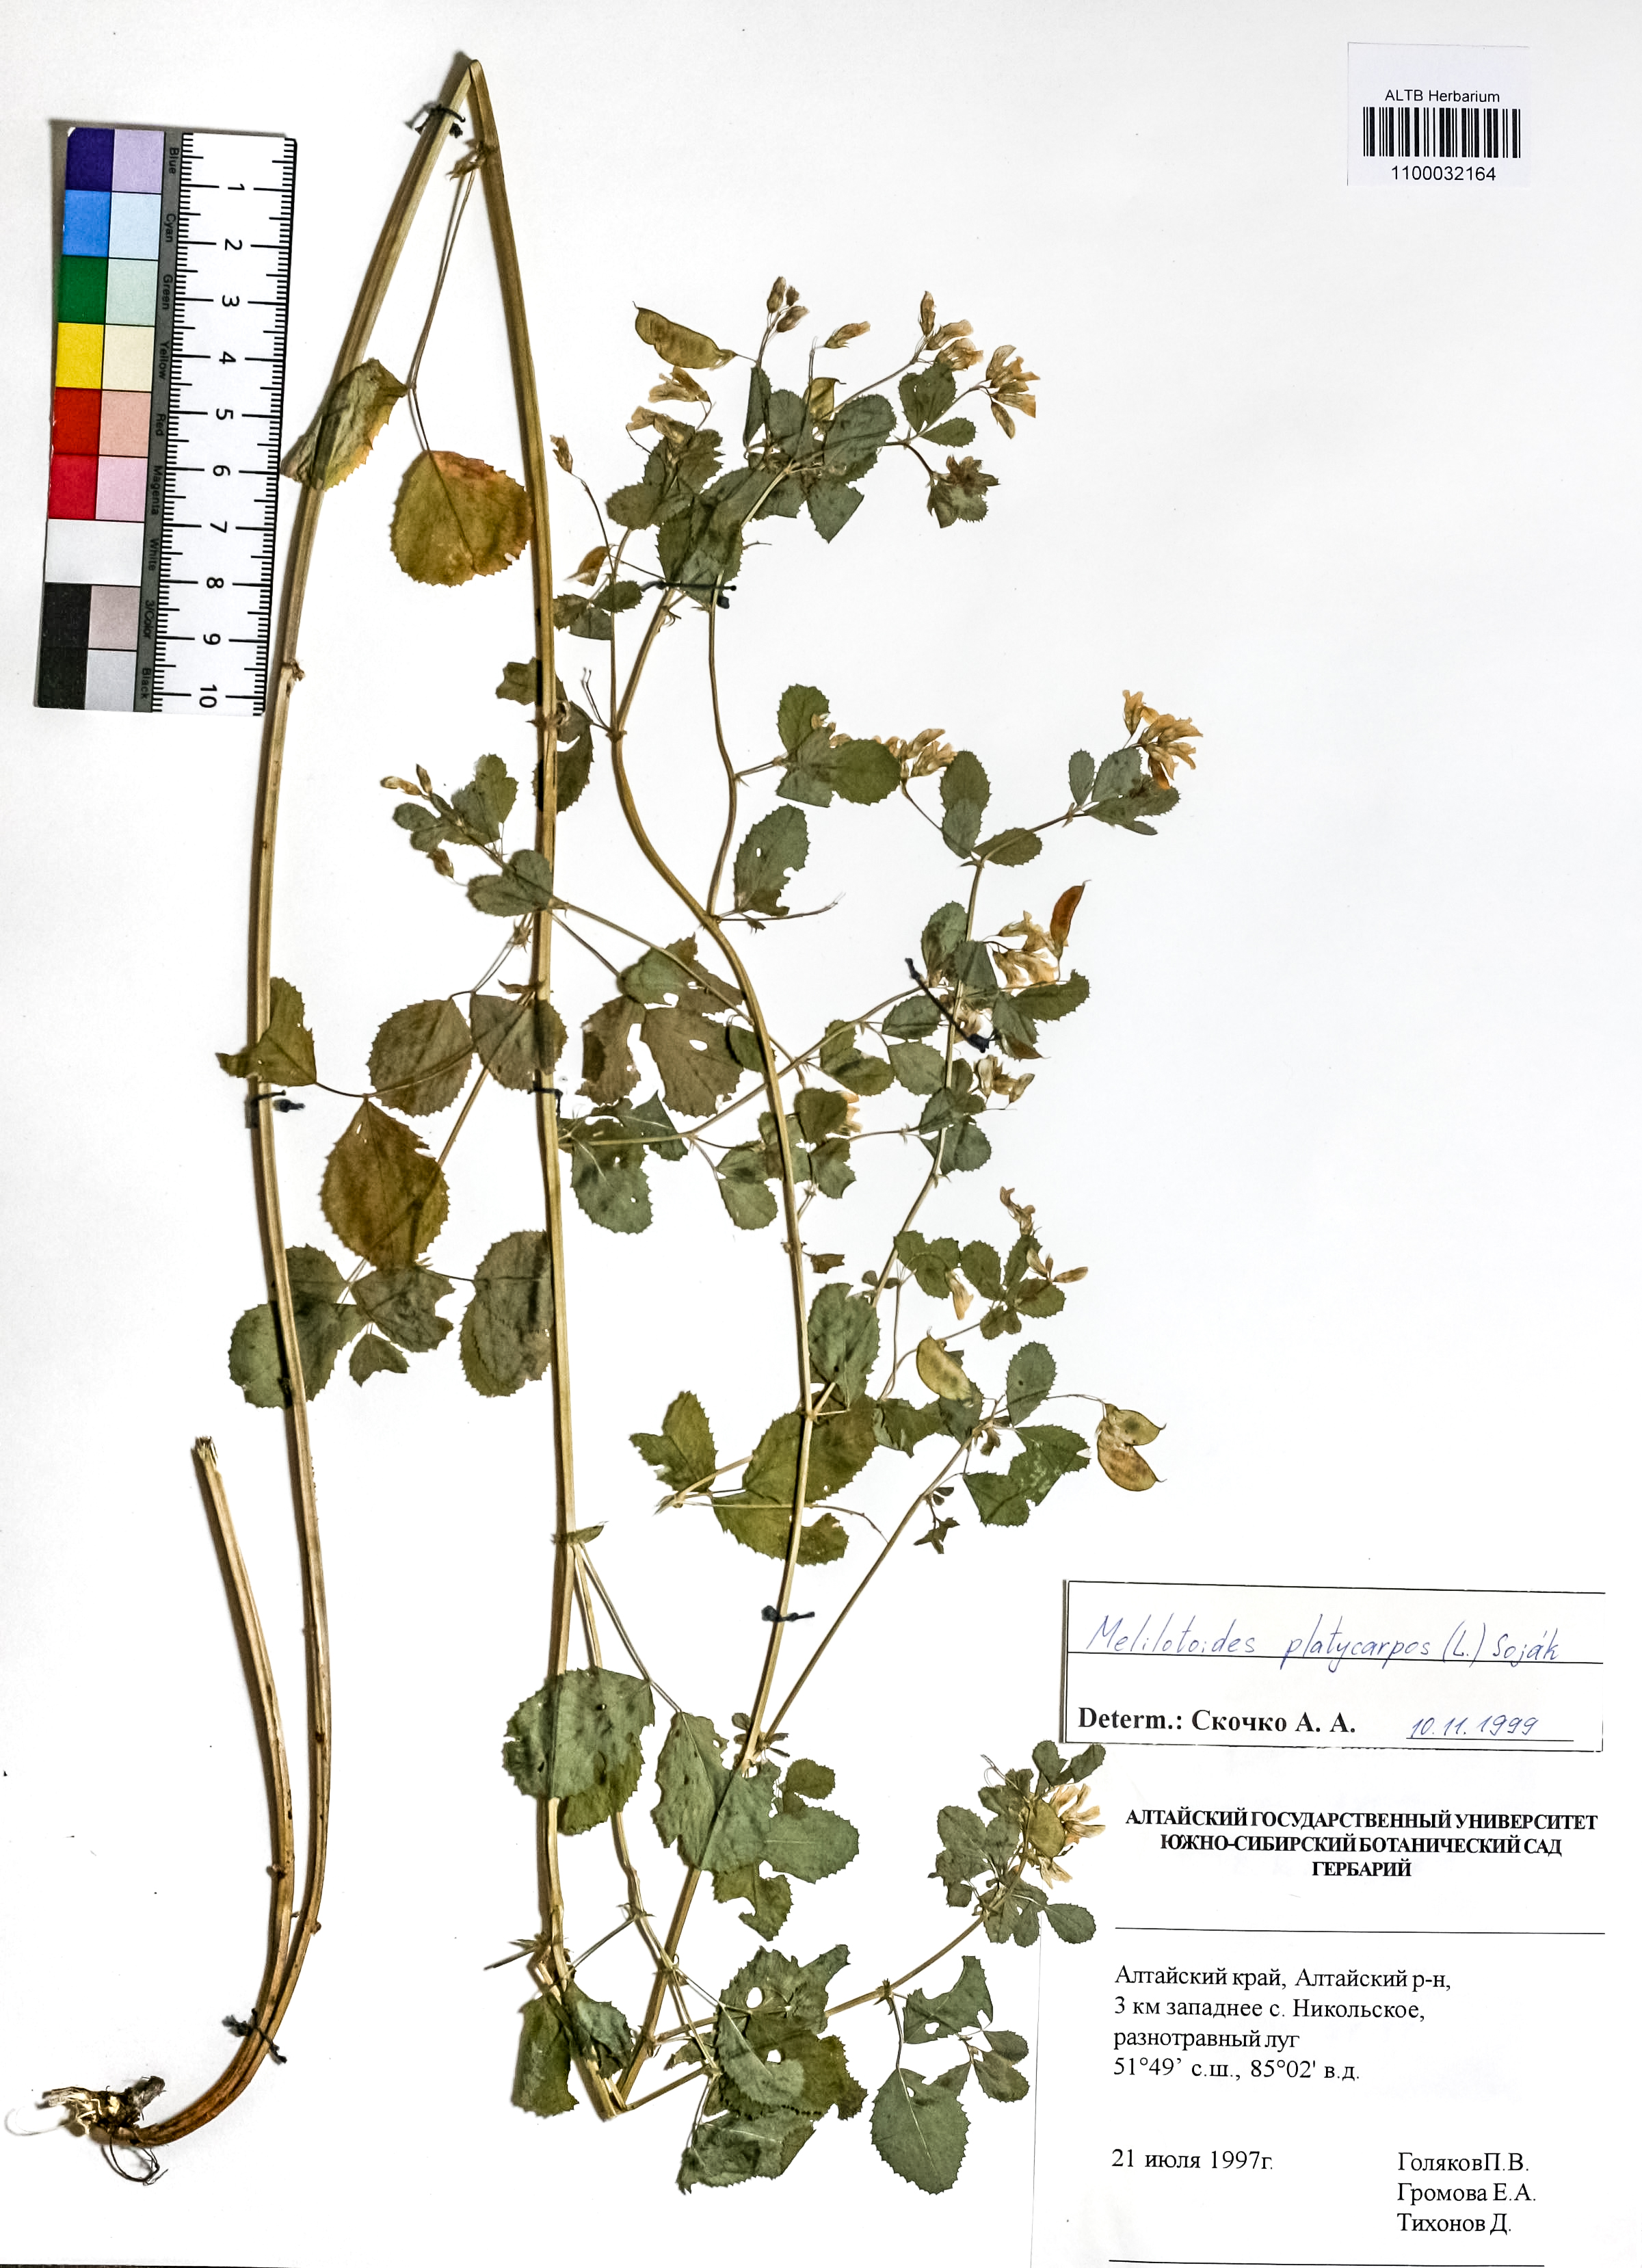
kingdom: Plantae
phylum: Tracheophyta
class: Magnoliopsida
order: Fabales
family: Fabaceae
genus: Medicago
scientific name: Medicago platycarpos
